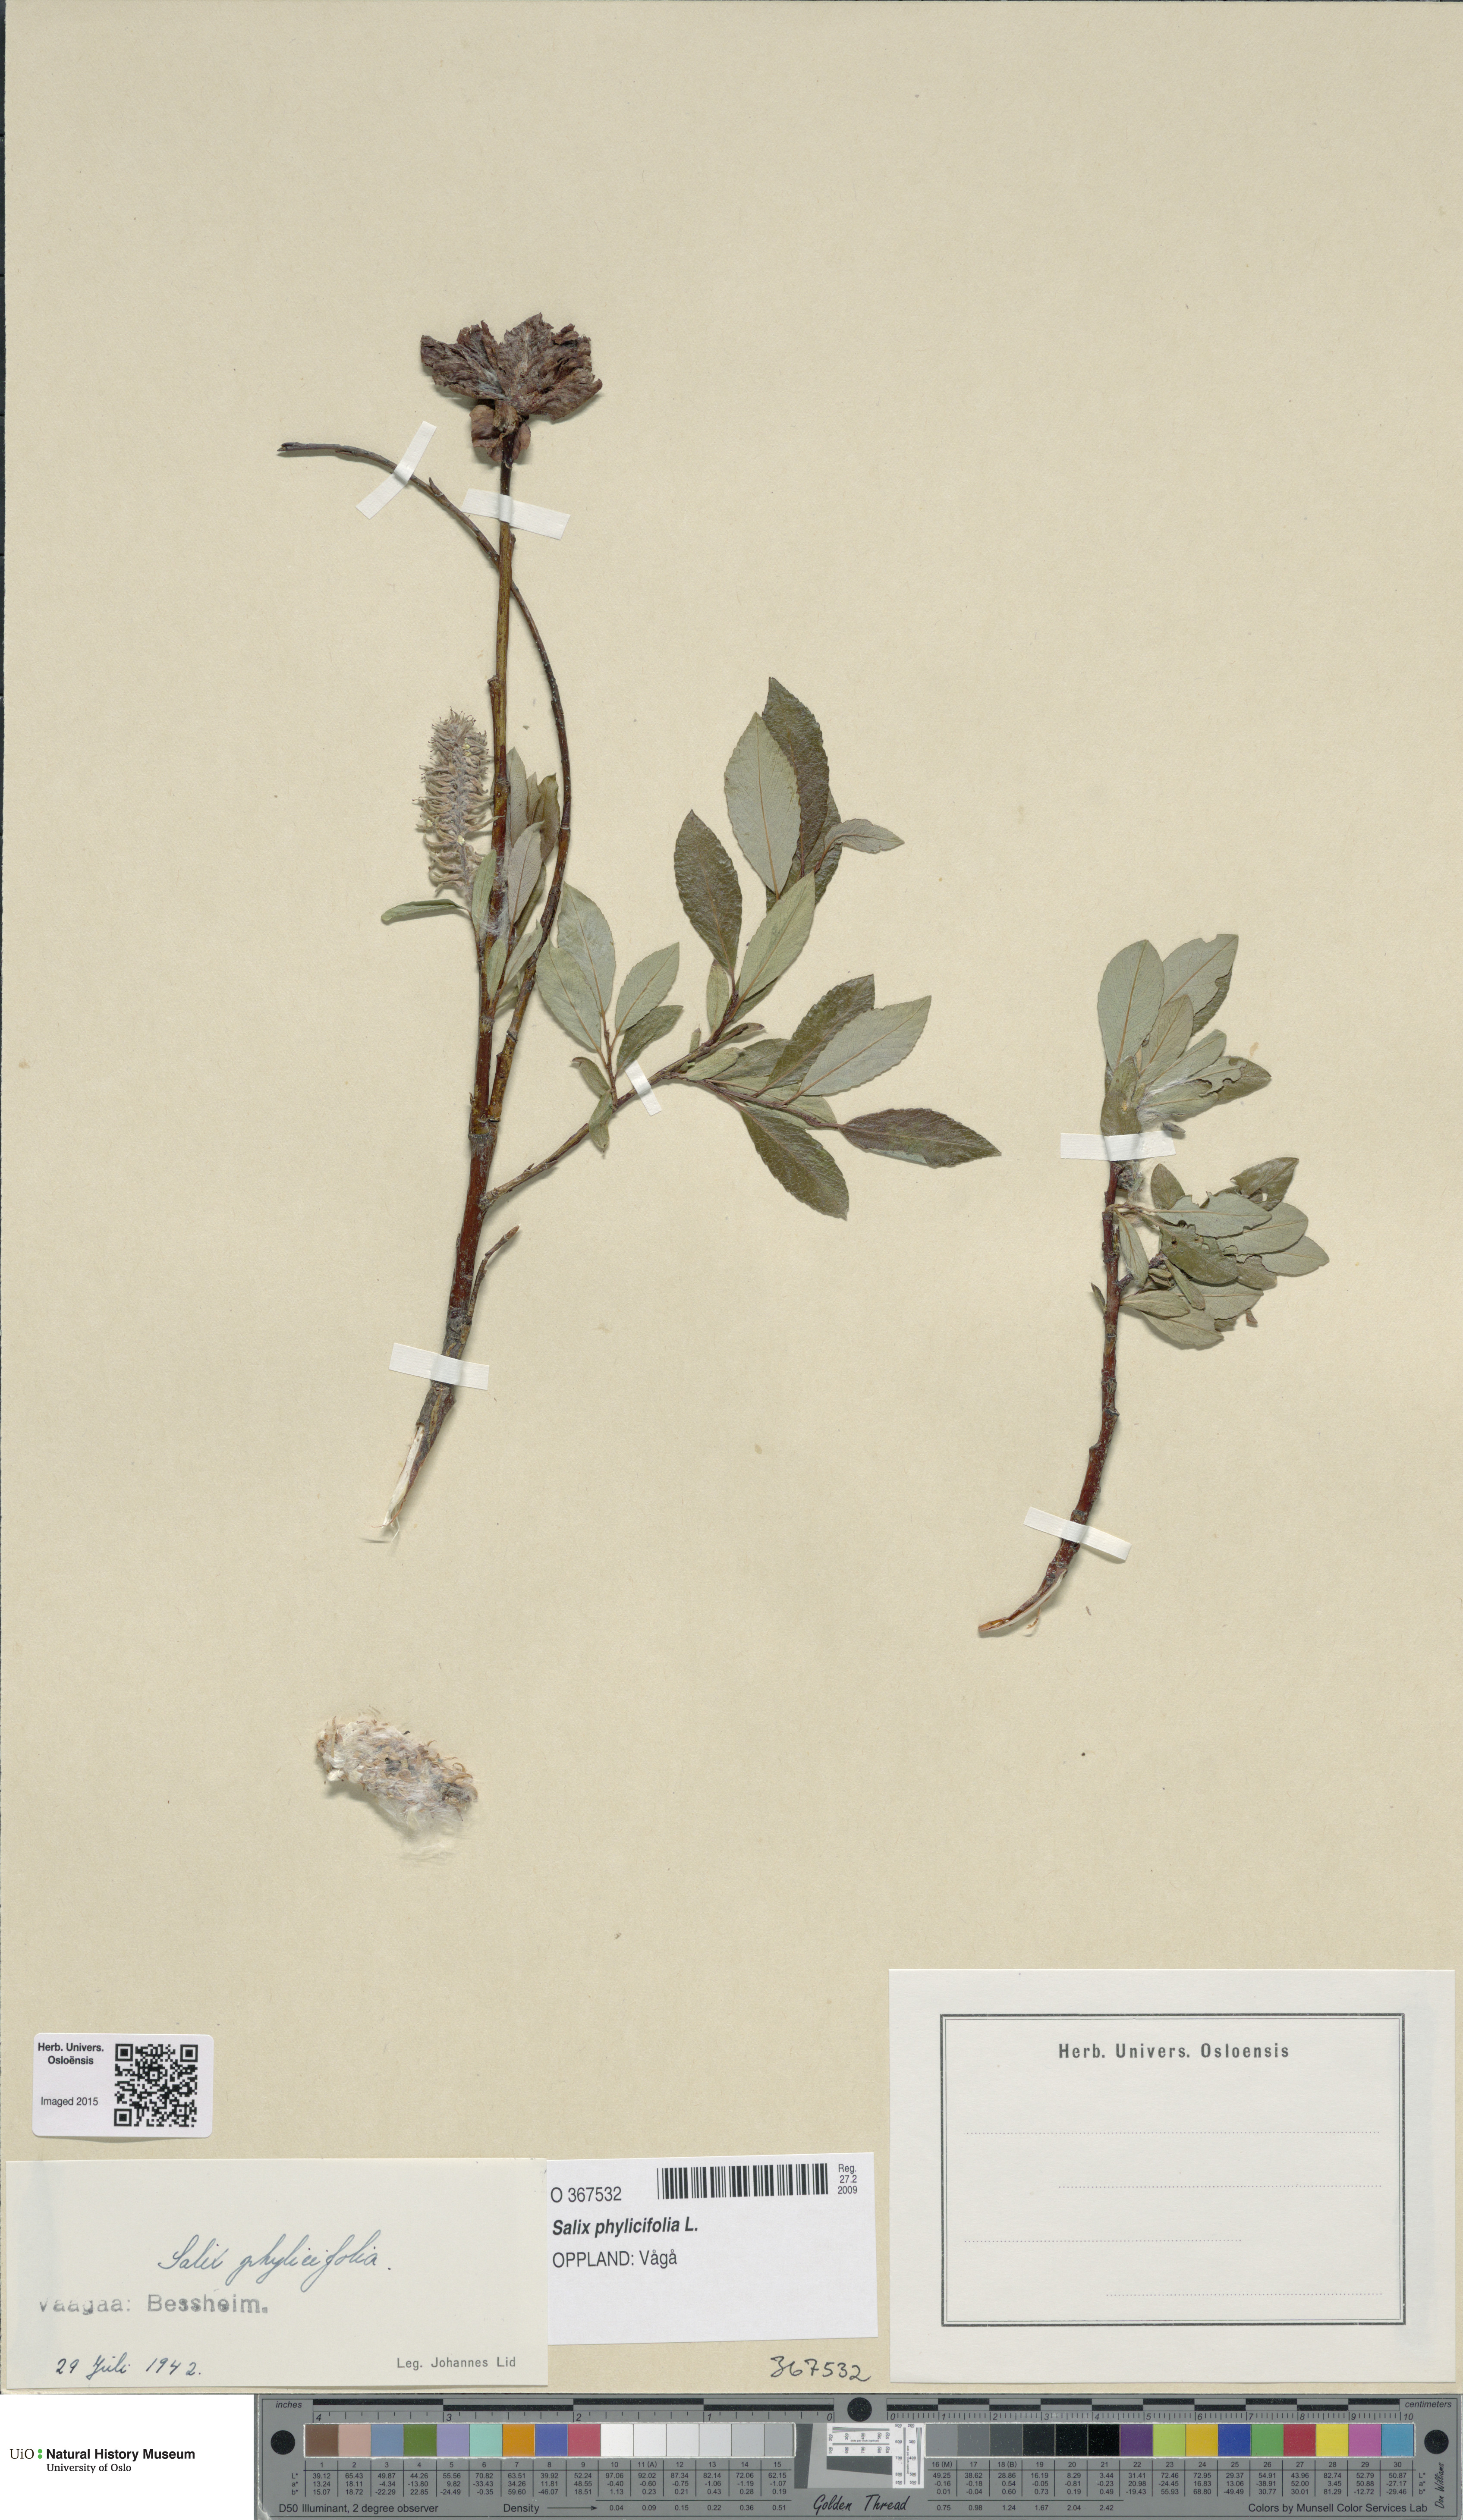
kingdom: Plantae
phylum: Tracheophyta
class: Magnoliopsida
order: Malpighiales
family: Salicaceae
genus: Salix
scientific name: Salix phylicifolia
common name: Tea-leaved willow
